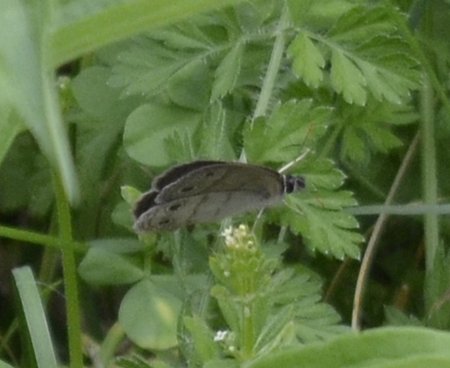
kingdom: Animalia
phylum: Arthropoda
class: Insecta
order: Lepidoptera
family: Nymphalidae
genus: Euptychia
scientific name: Euptychia cymela
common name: Little Wood Satyr
